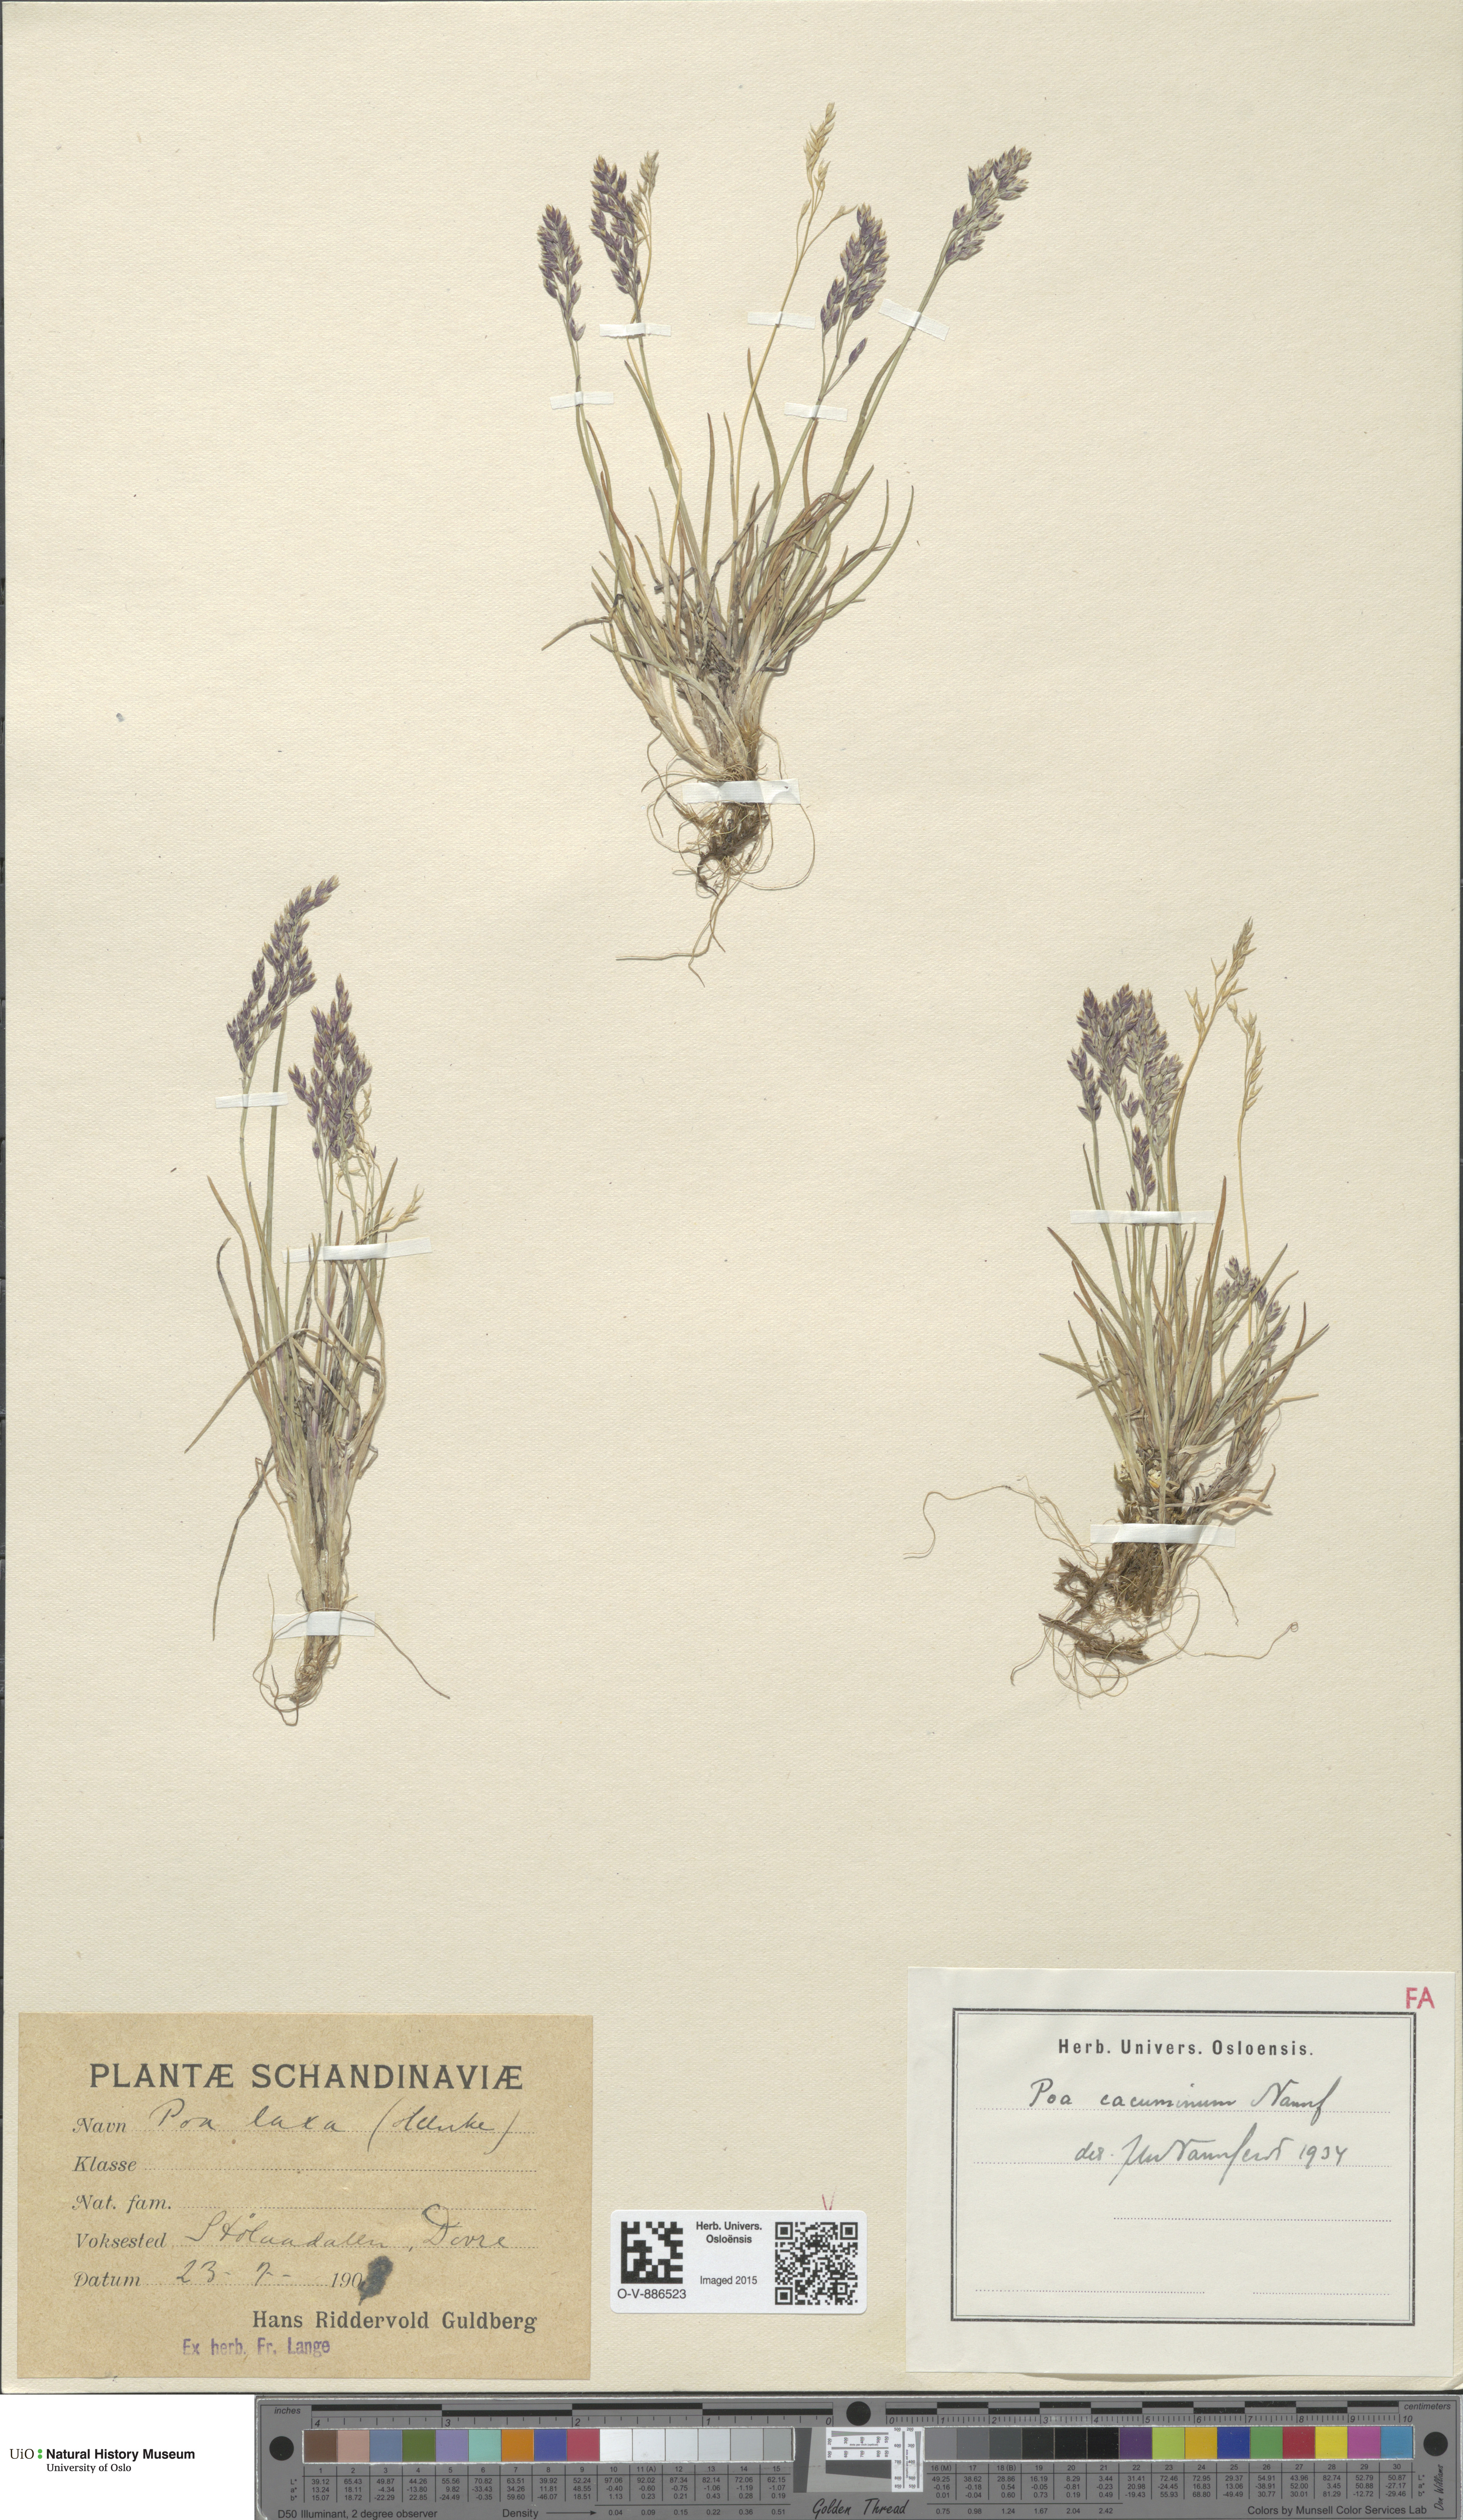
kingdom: Plantae
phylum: Tracheophyta
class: Liliopsida
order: Poales
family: Poaceae
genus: Poa
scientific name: Poa flexuosa
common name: Wavy meadow-grass
